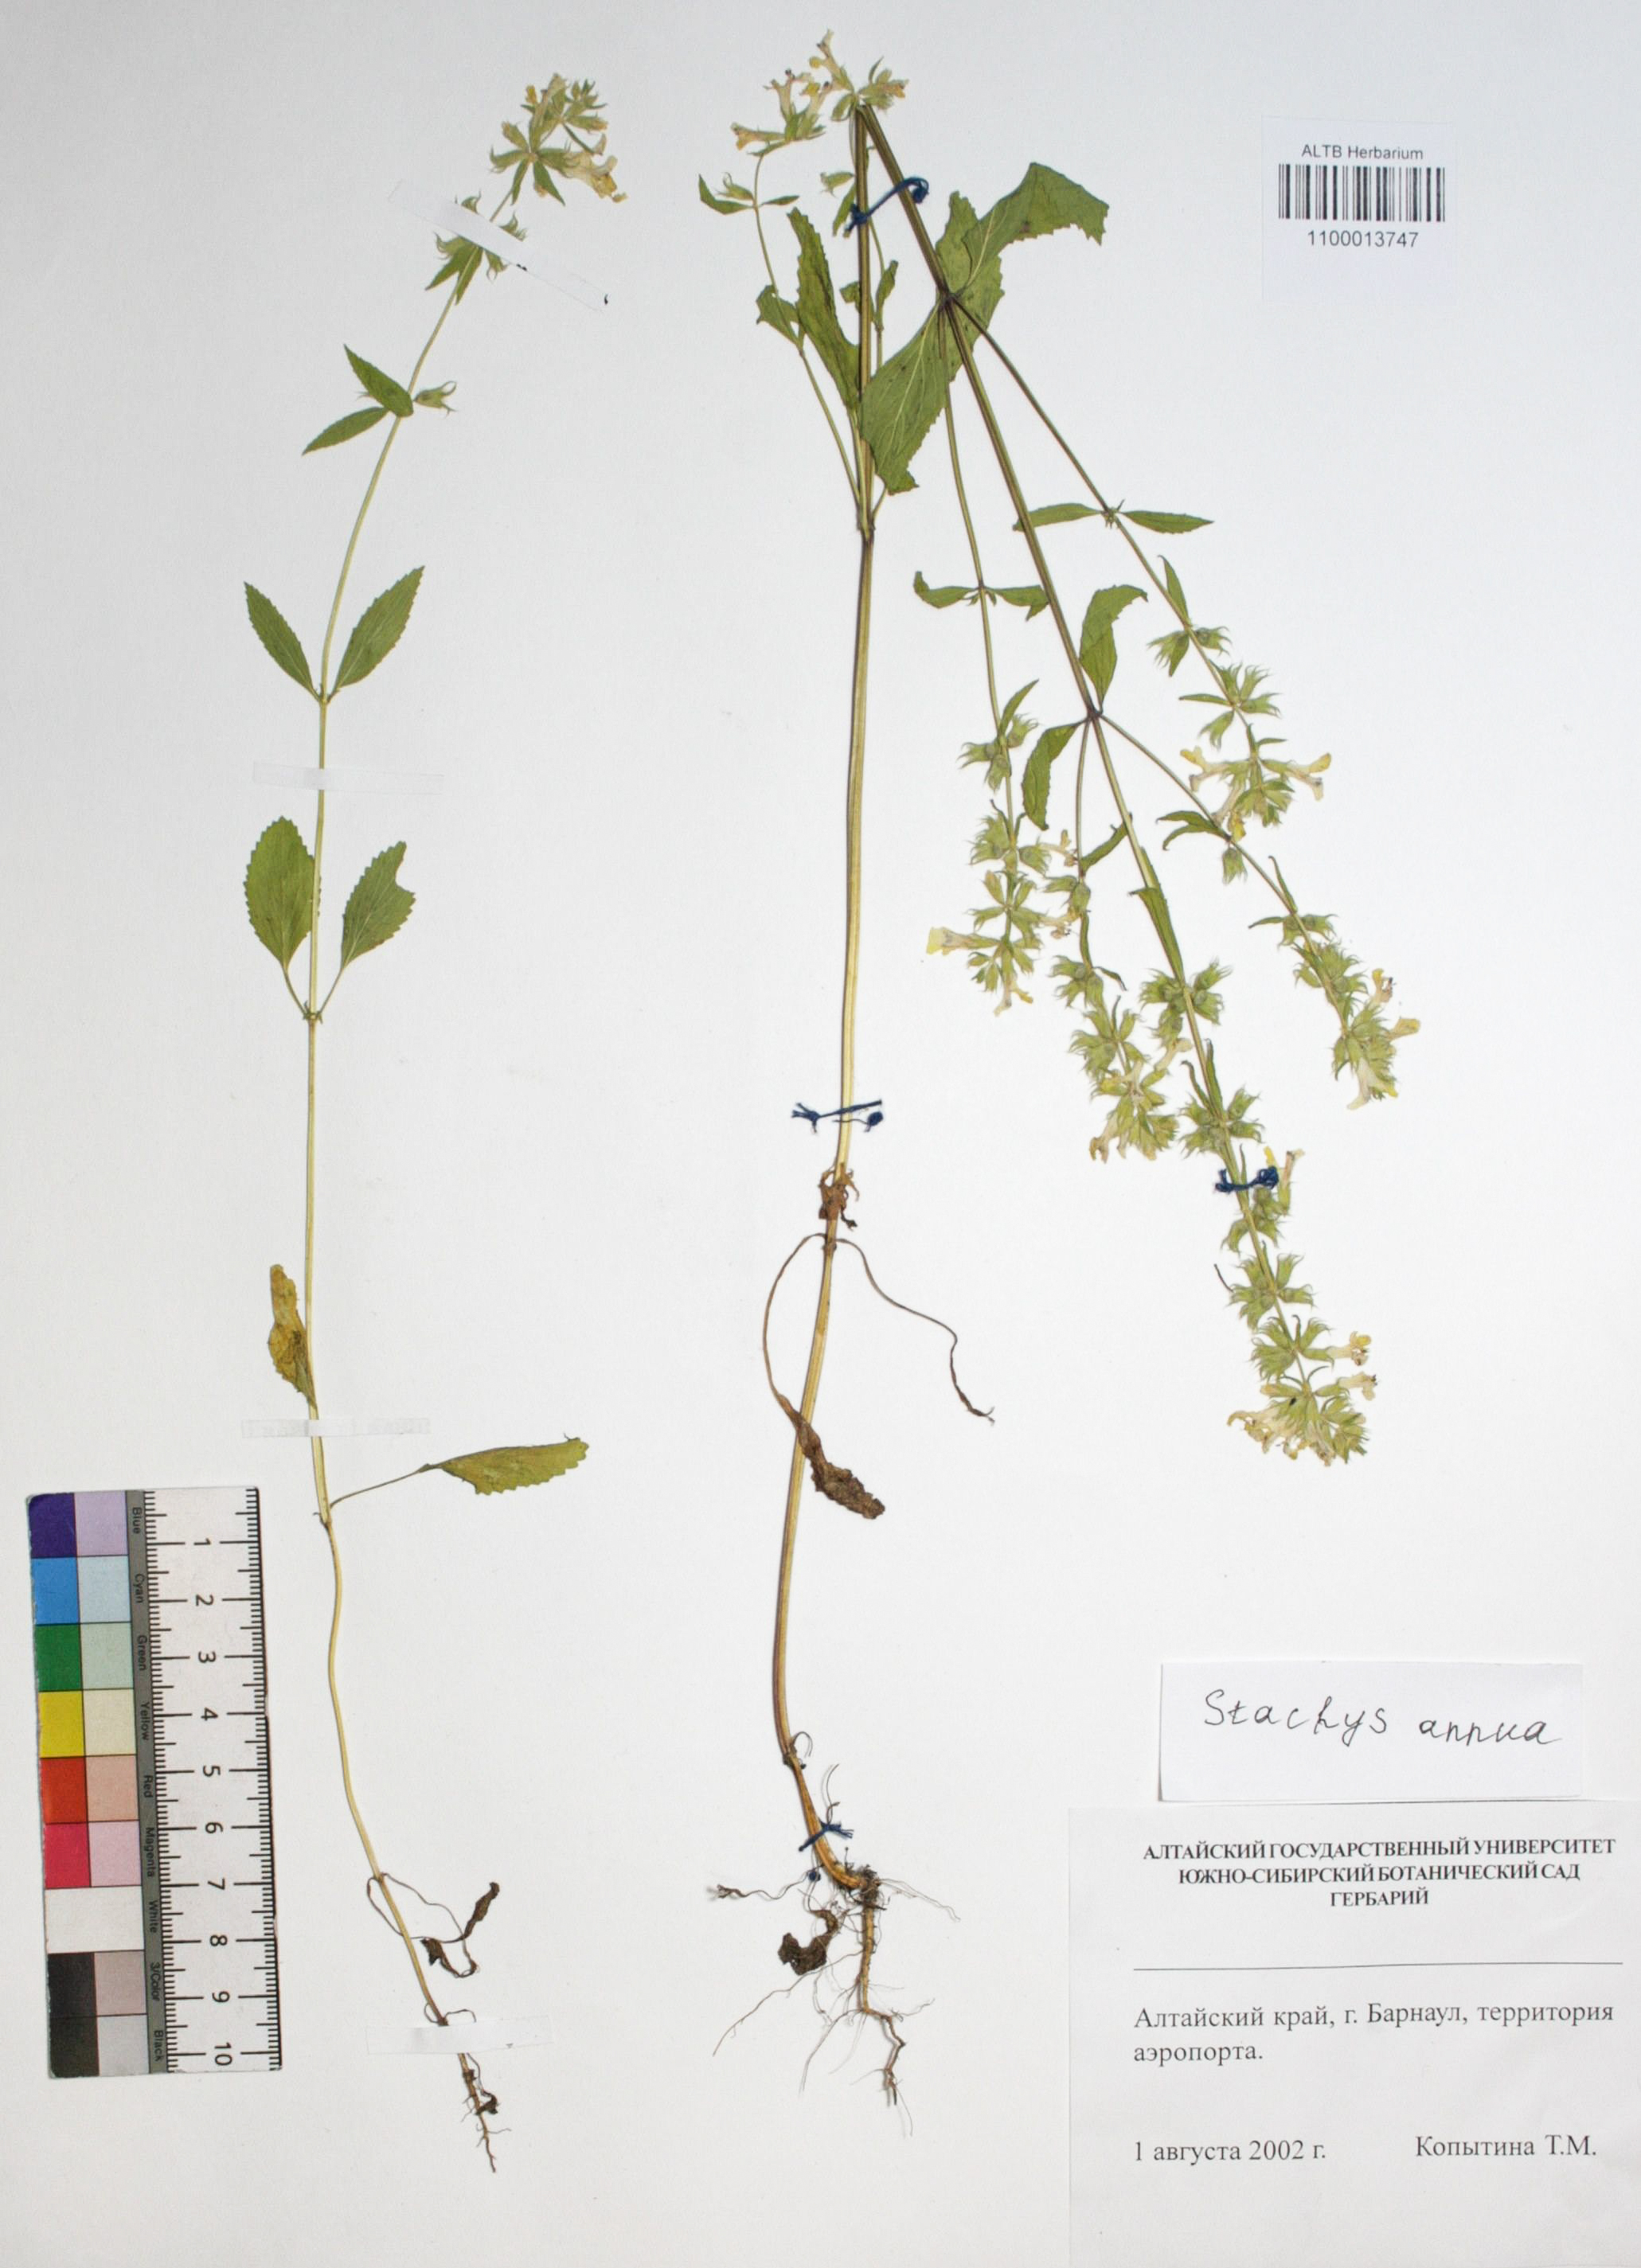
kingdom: Plantae
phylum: Tracheophyta
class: Magnoliopsida
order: Lamiales
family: Lamiaceae
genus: Stachys
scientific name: Stachys annua
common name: Annual yellow-woundwort
